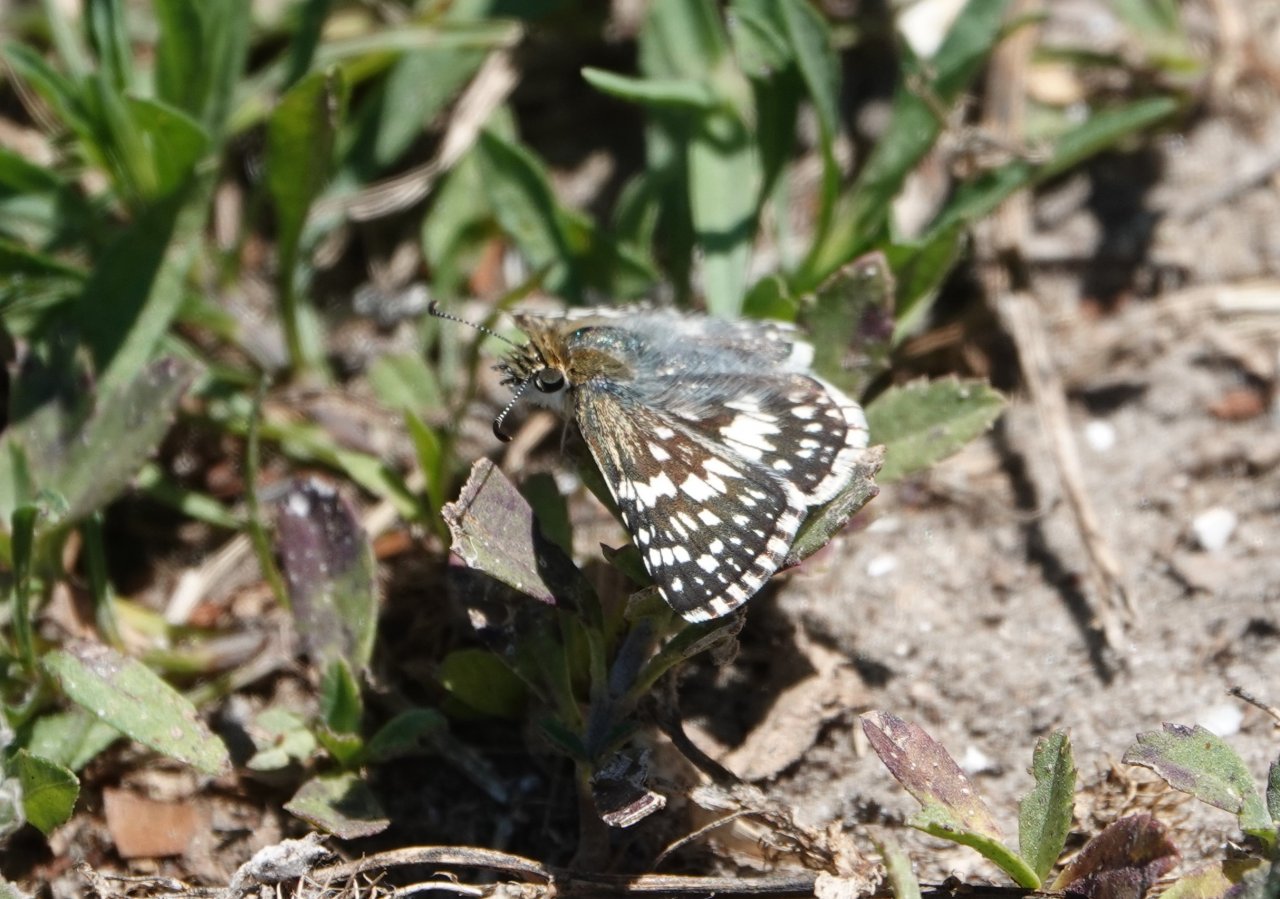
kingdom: Animalia
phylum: Arthropoda
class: Insecta
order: Lepidoptera
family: Hesperiidae
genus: Pyrgus
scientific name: Pyrgus communis
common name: White Checkered-Skipper
